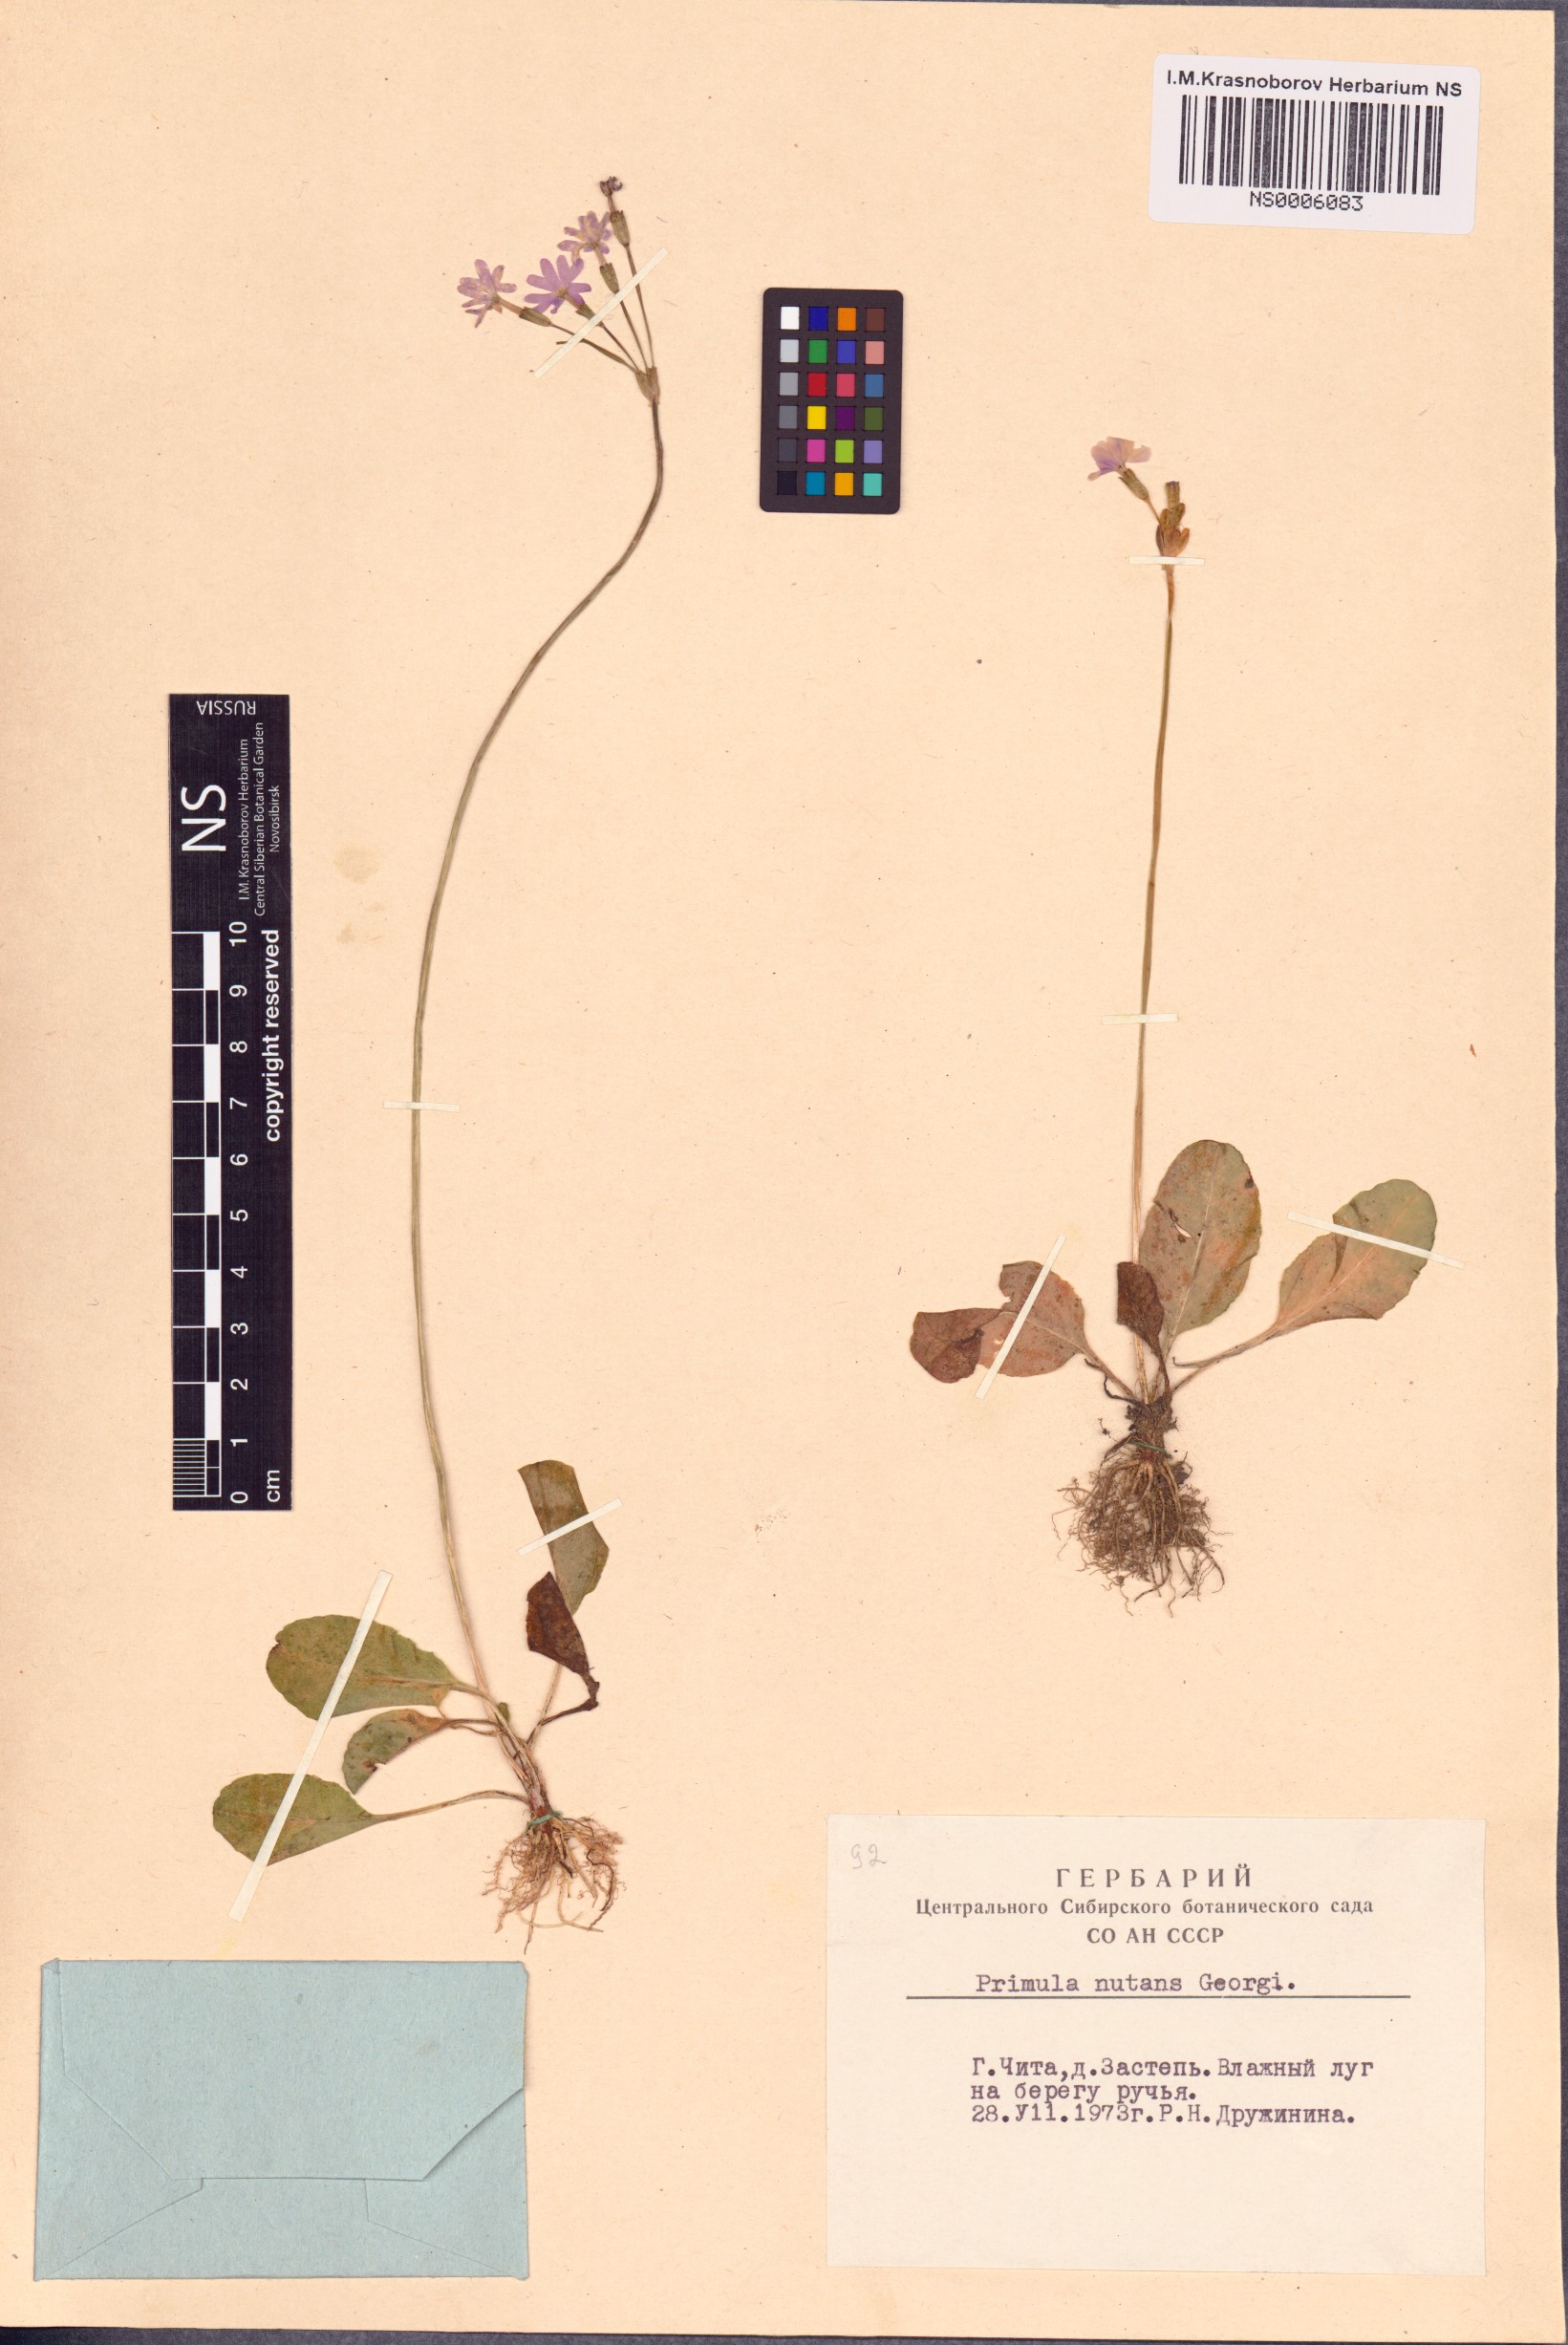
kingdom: Plantae
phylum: Tracheophyta
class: Magnoliopsida
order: Ericales
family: Primulaceae
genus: Primula
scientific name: Primula nutans
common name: Siberian primrose
